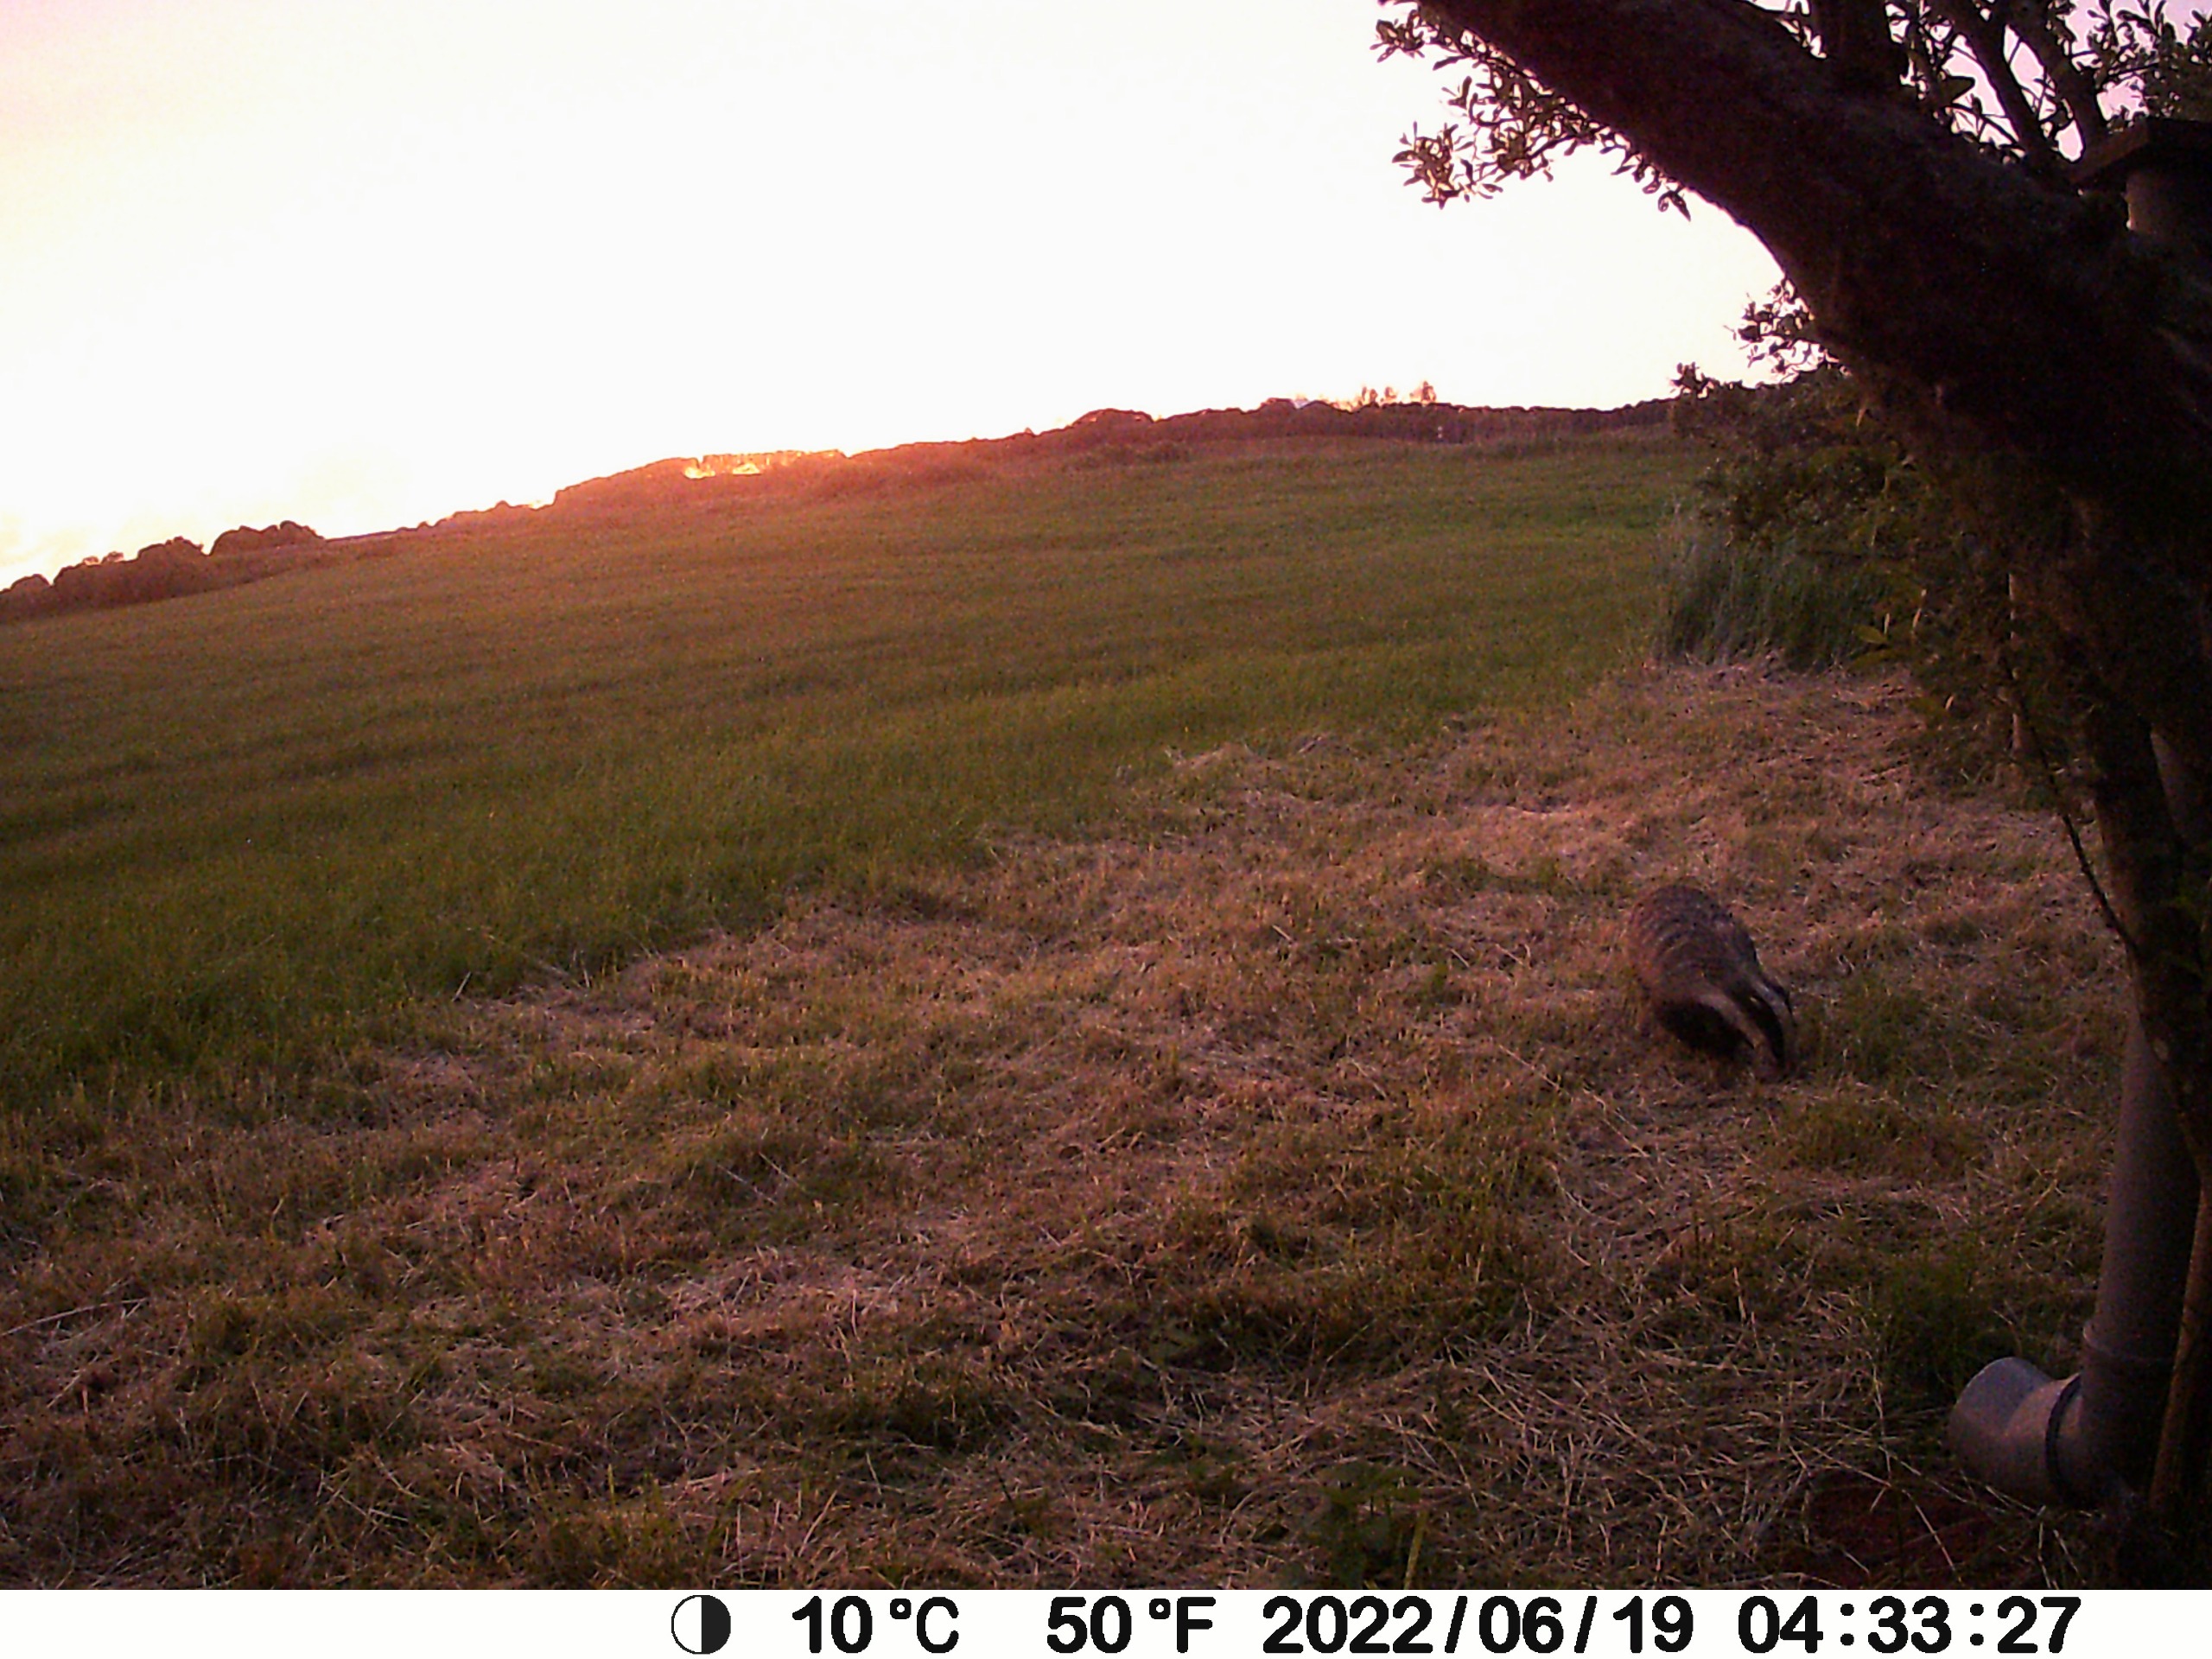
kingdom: Animalia
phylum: Chordata
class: Mammalia
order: Carnivora
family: Mustelidae
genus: Meles
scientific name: Meles meles
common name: Grævling
